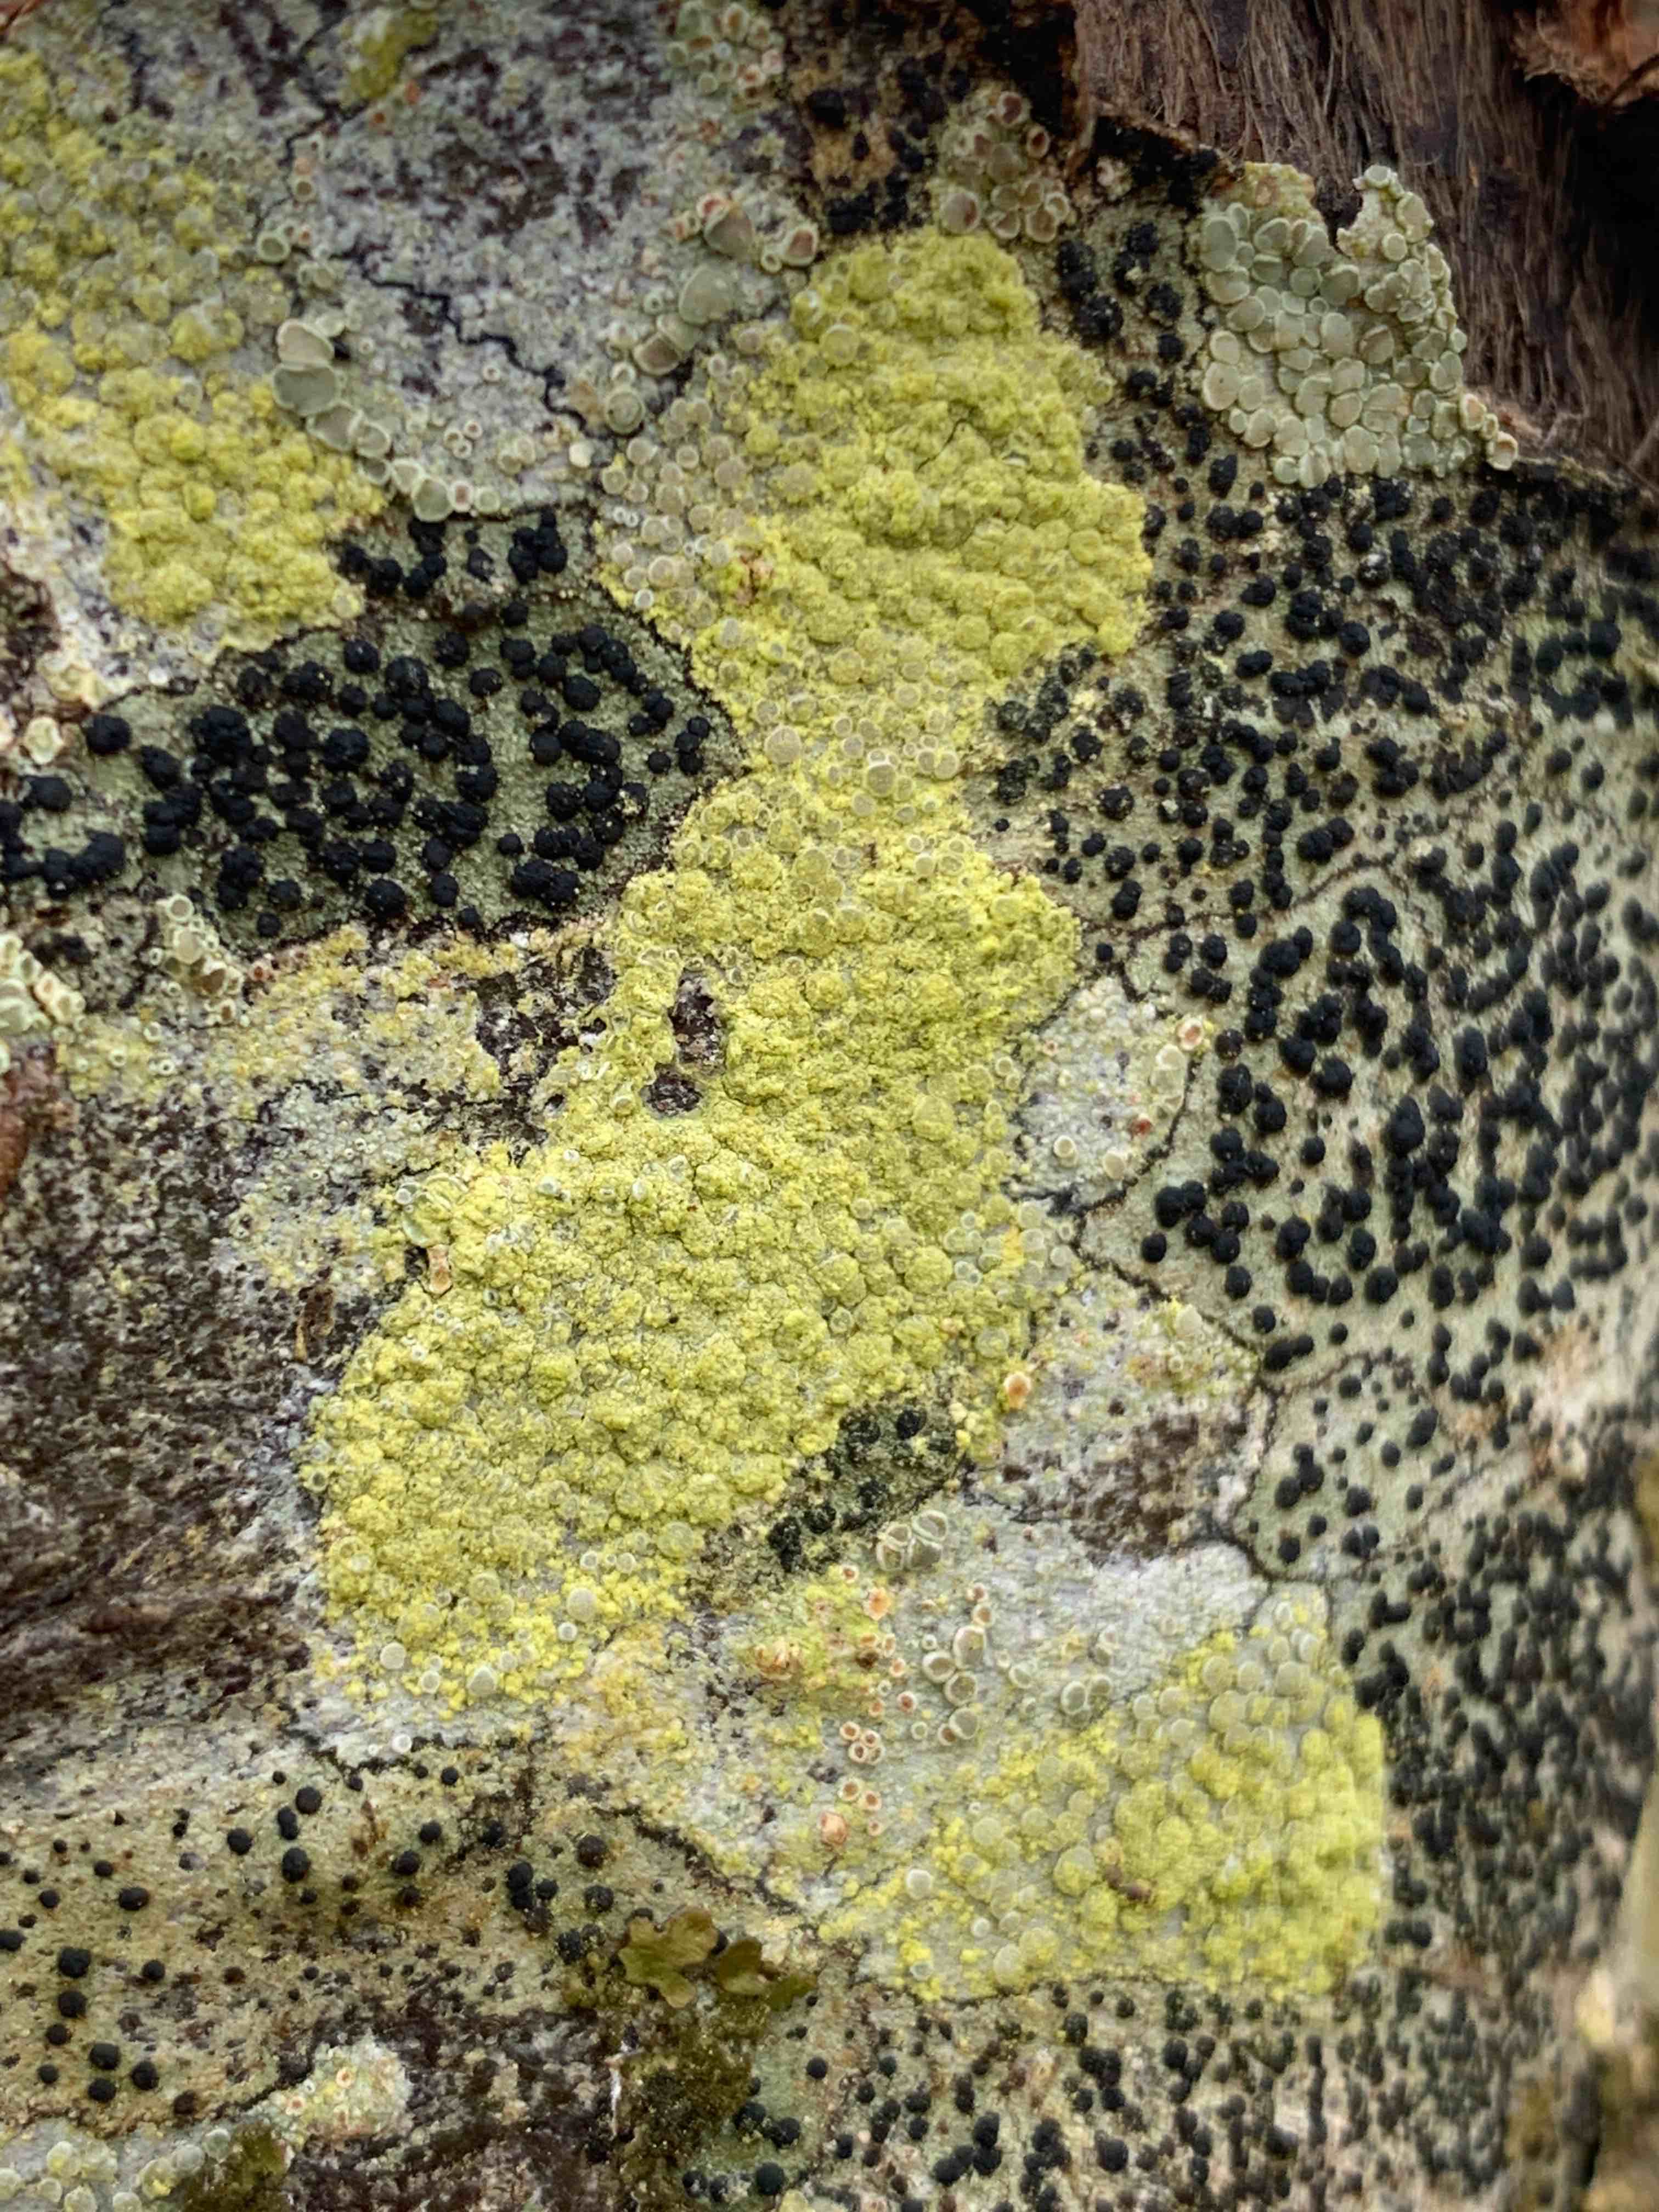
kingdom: Fungi
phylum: Ascomycota
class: Lecanoromycetes
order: Lecanorales
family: Parmeliaceae
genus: Lichen
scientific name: Lichen
